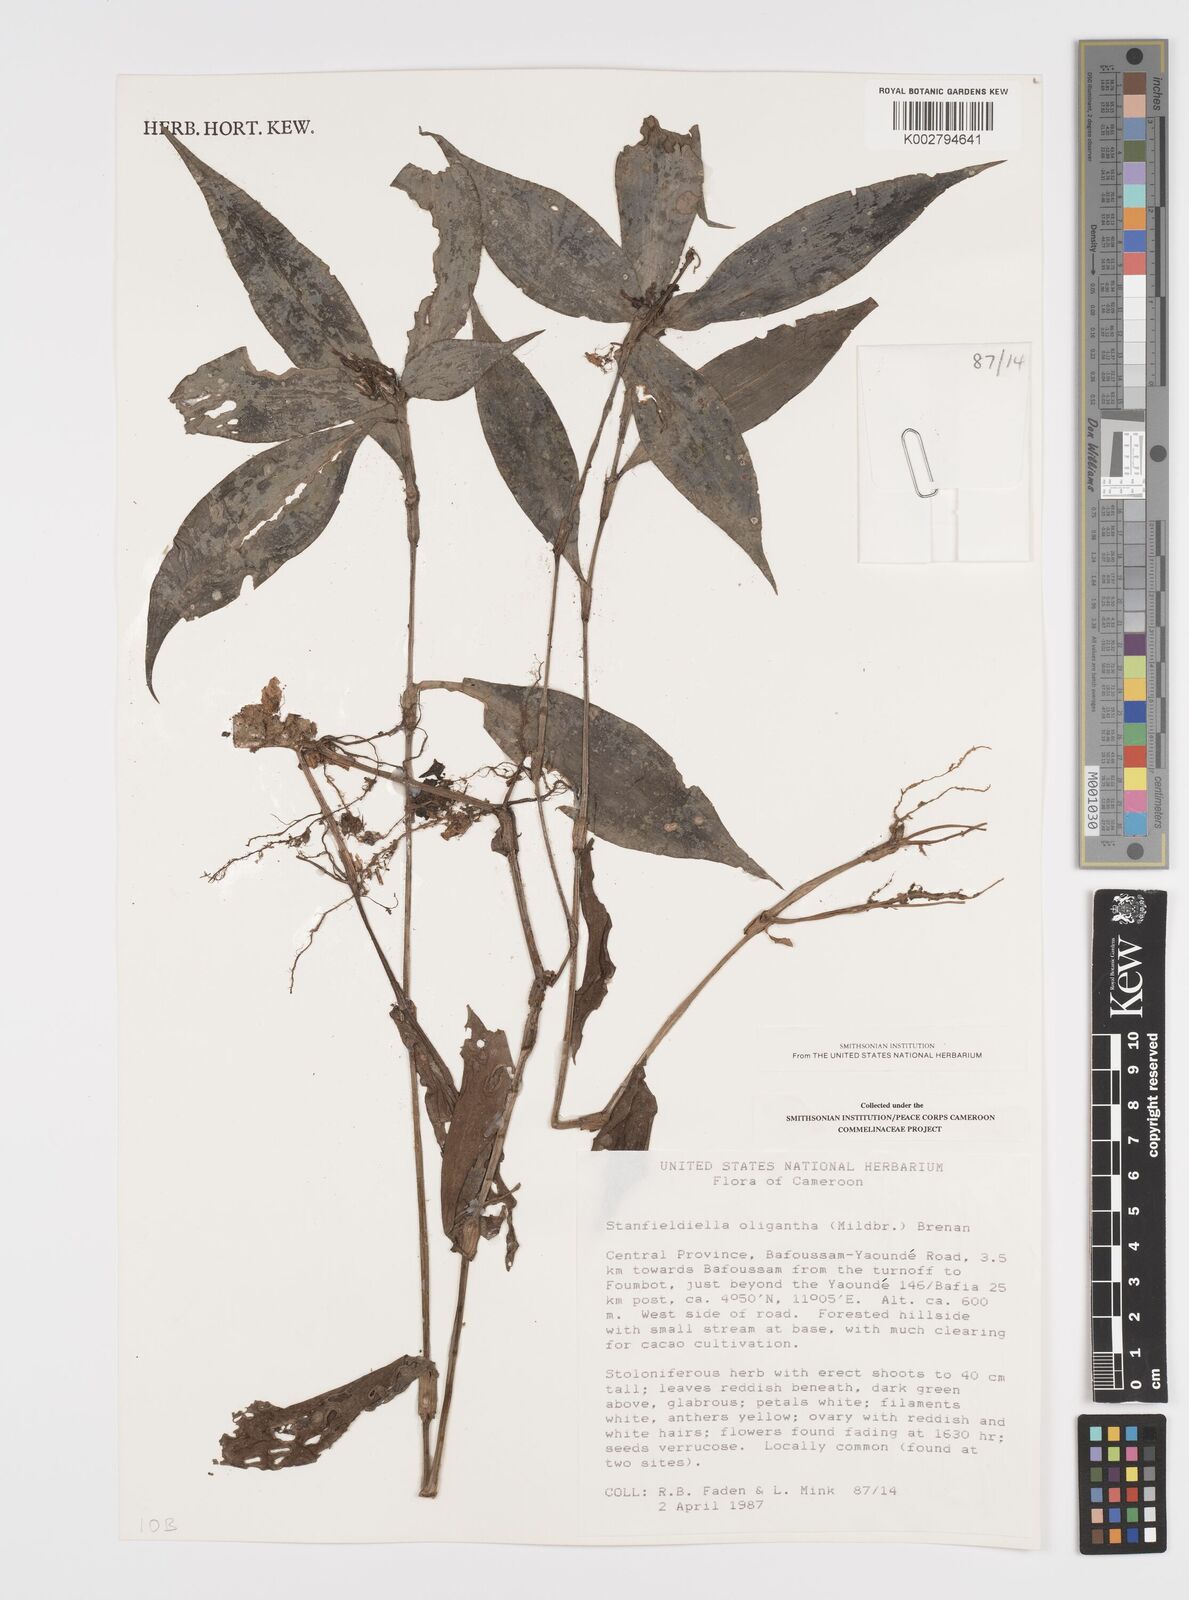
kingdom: Plantae
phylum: Tracheophyta
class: Liliopsida
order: Commelinales
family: Commelinaceae
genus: Stanfieldiella
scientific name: Stanfieldiella oligantha
